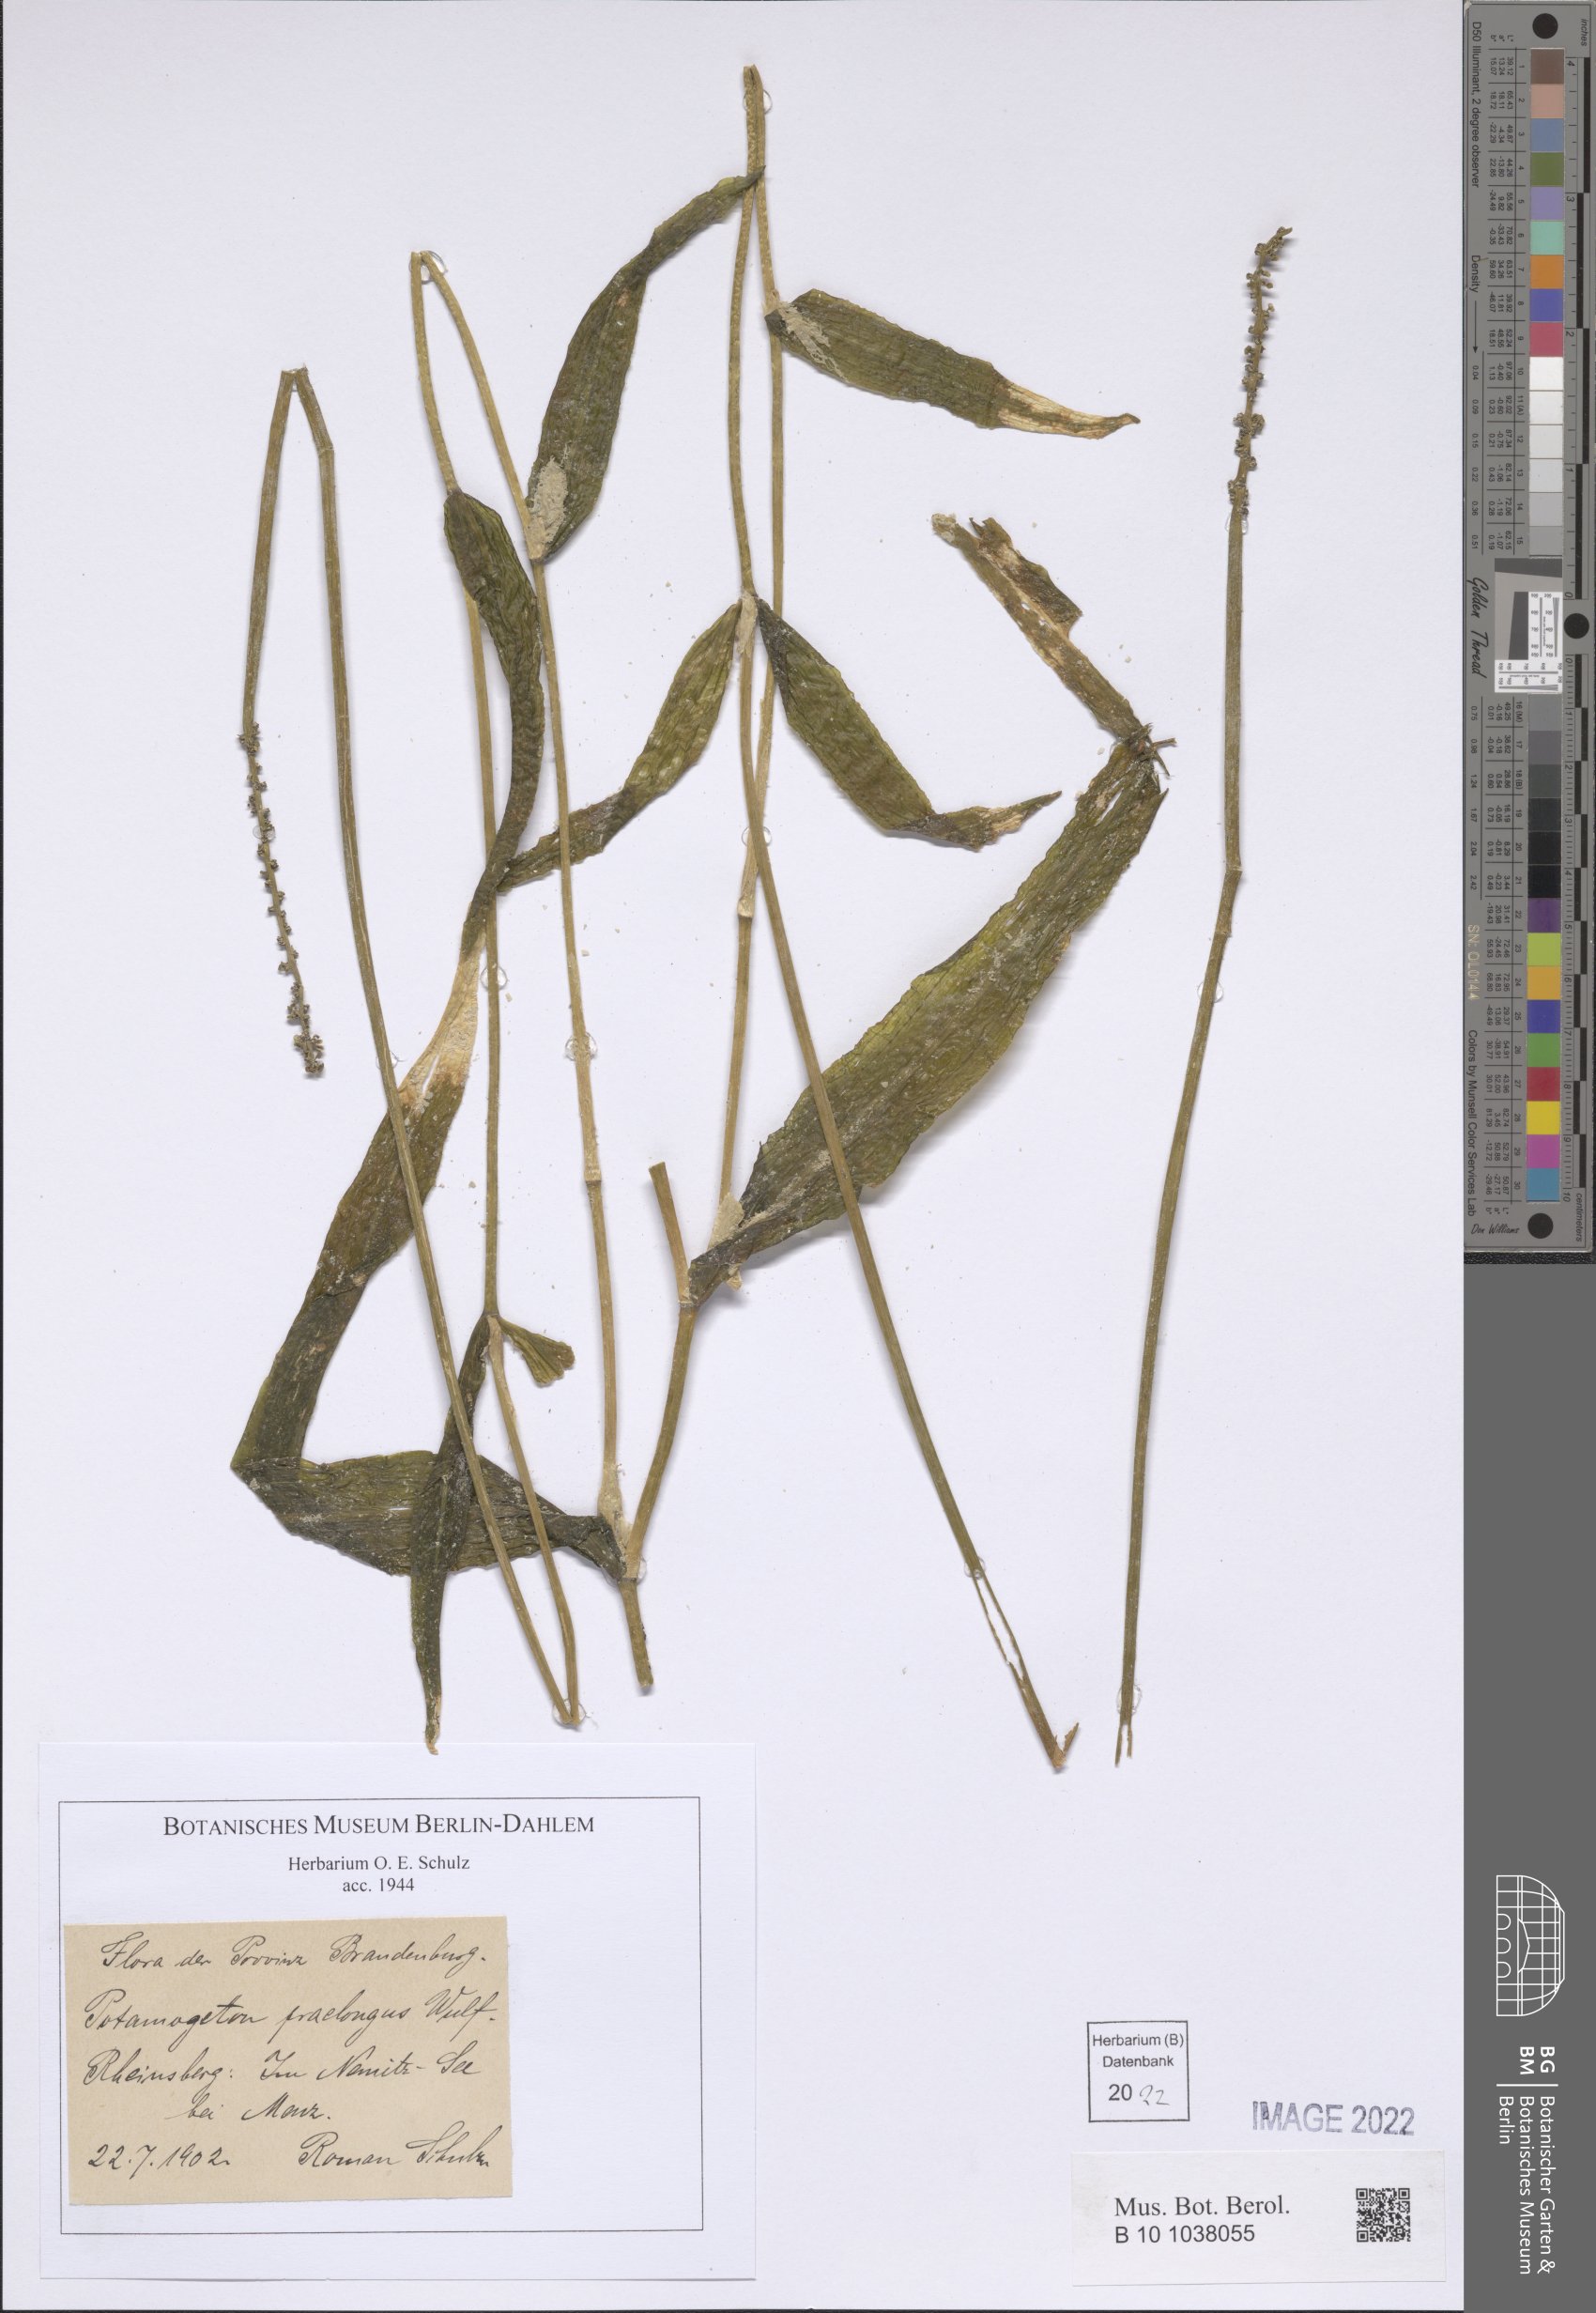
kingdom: Plantae
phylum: Tracheophyta
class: Liliopsida
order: Alismatales
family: Potamogetonaceae
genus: Potamogeton
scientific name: Potamogeton praelongus
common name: Long-stalked pondweed
